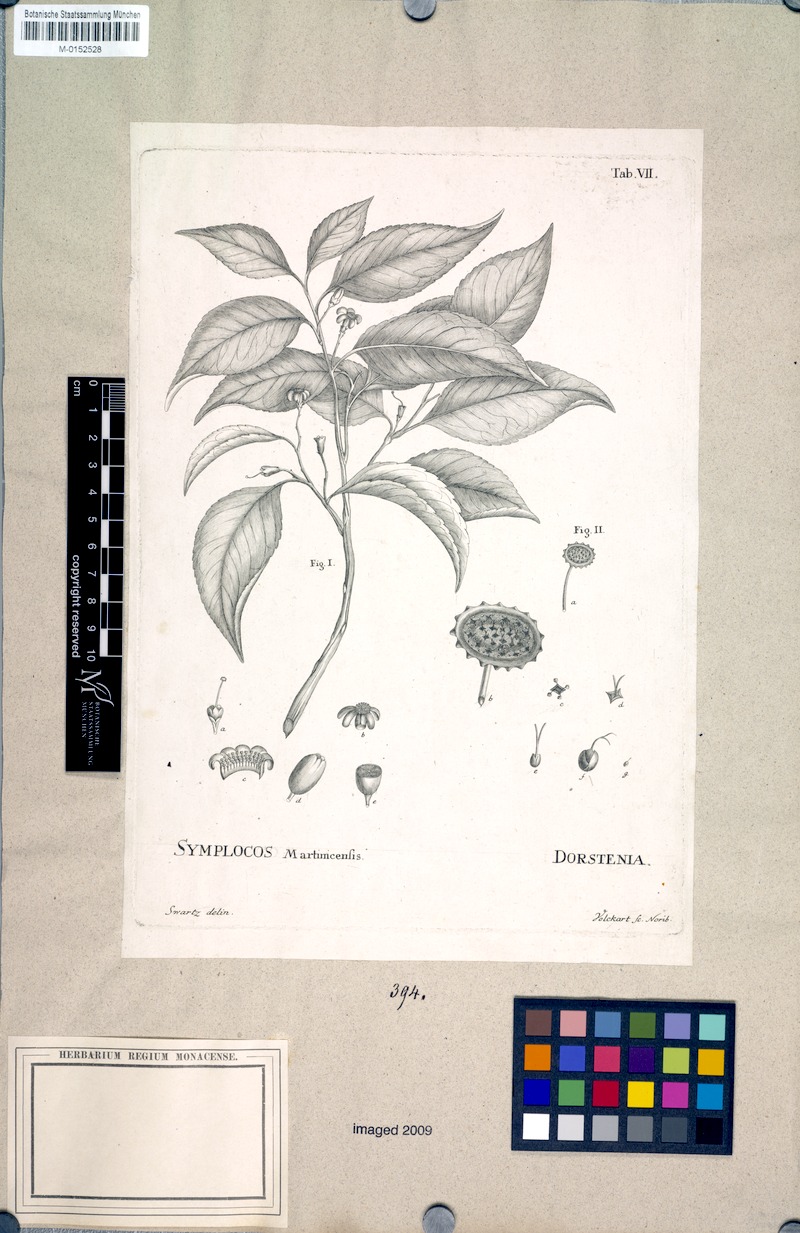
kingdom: Plantae
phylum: Tracheophyta
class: Magnoliopsida
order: Ericales
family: Symplocaceae
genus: Symplocos
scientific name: Symplocos martinicensis
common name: Blueberry
